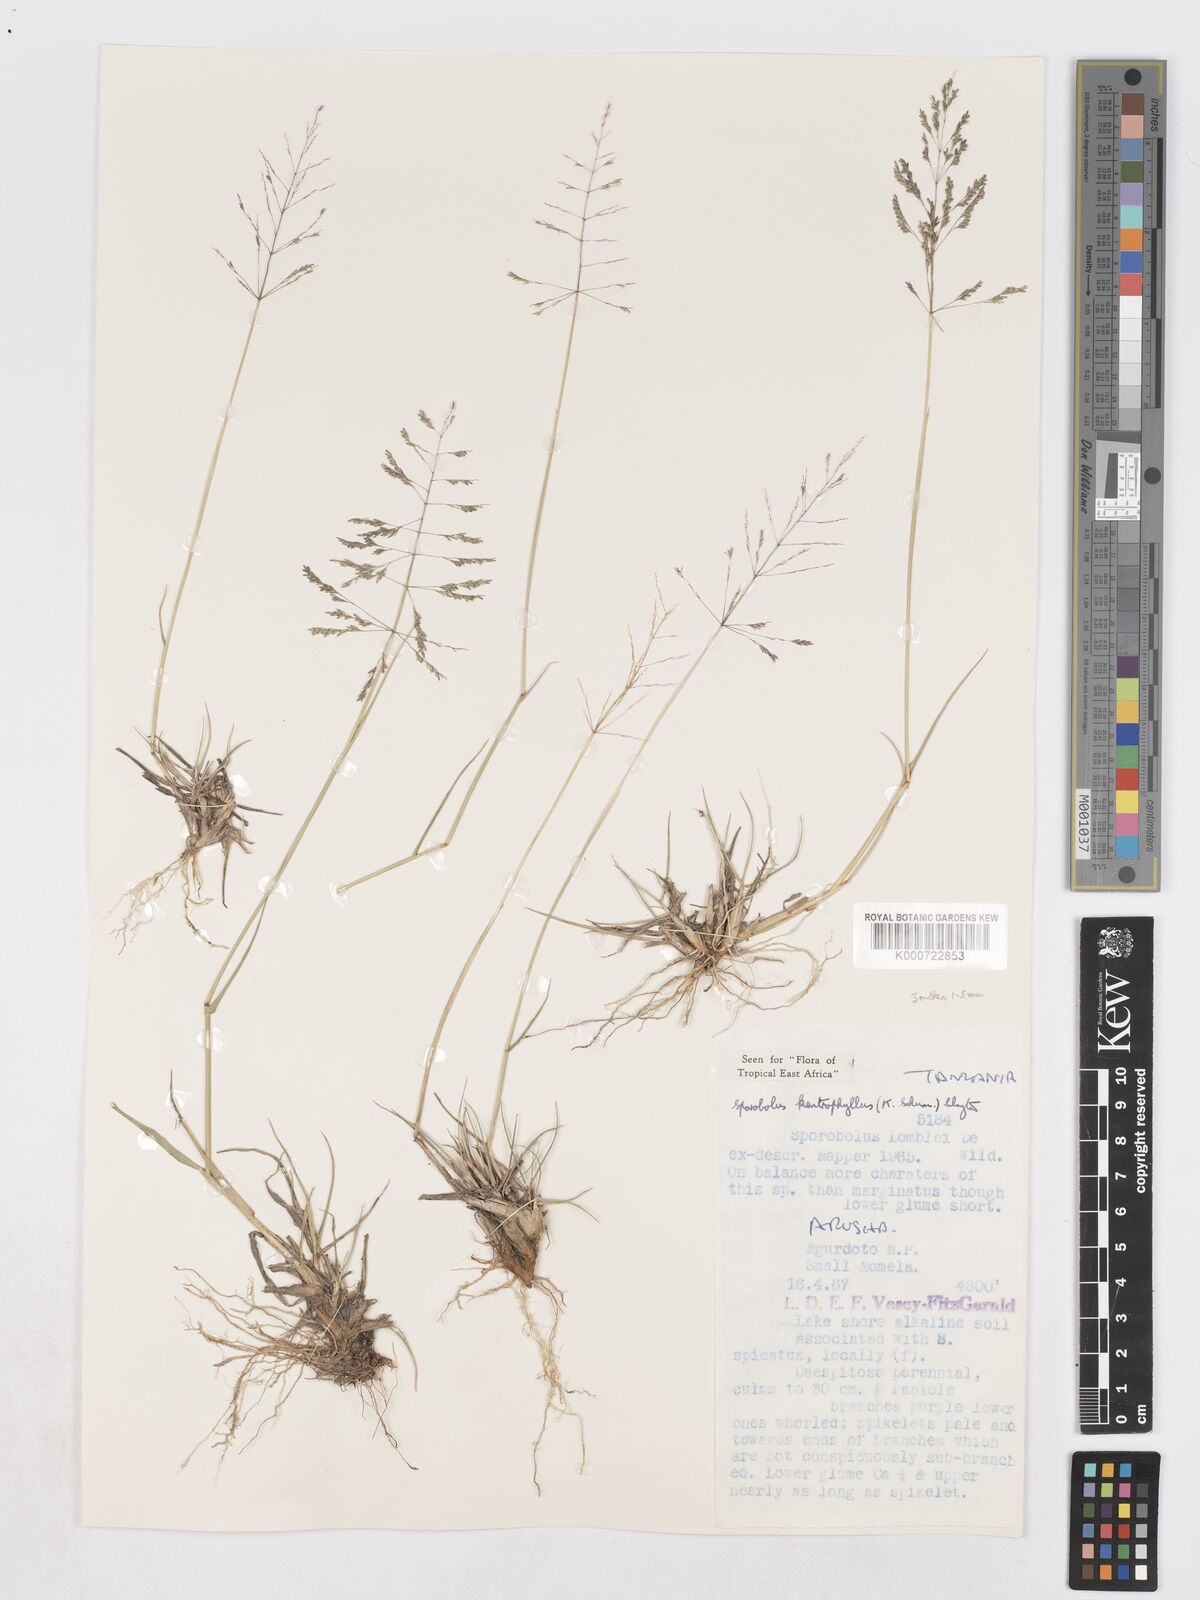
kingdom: Plantae
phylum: Tracheophyta
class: Liliopsida
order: Poales
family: Poaceae
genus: Sporobolus
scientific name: Sporobolus ioclados
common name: Pan dropseed
